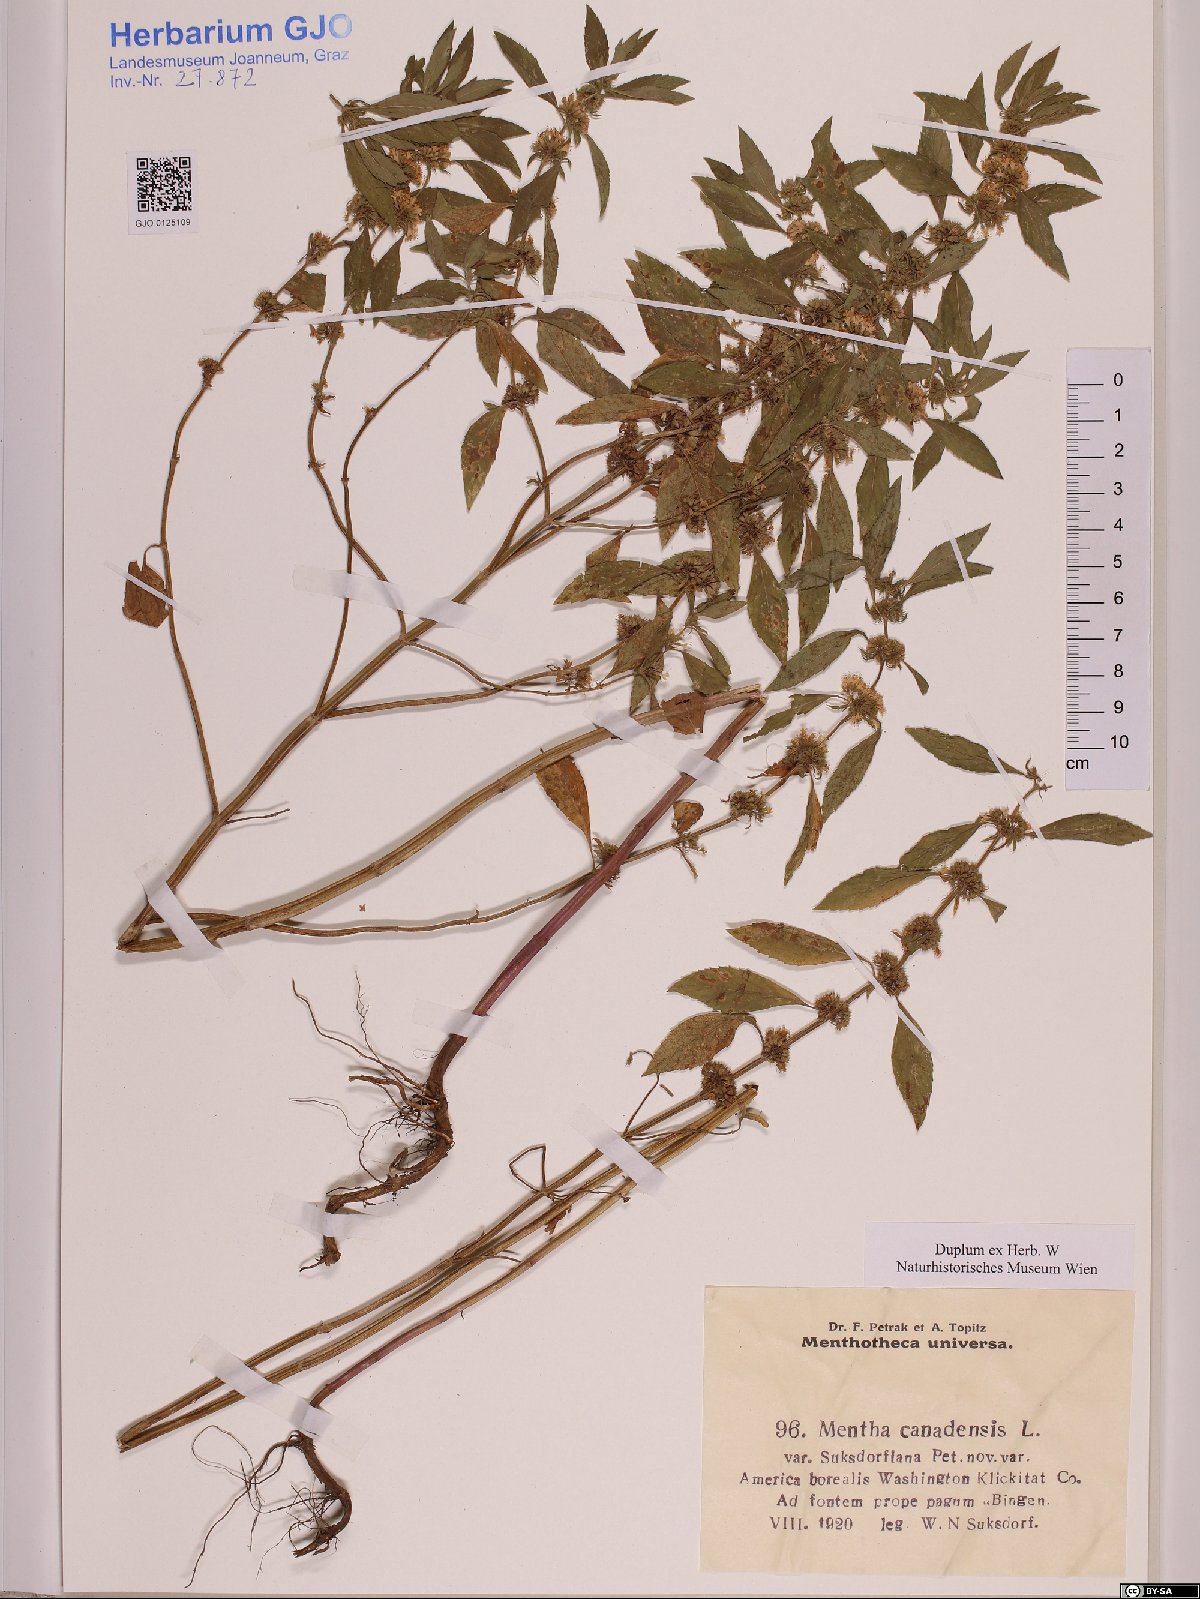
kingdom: Plantae
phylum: Tracheophyta
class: Magnoliopsida
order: Lamiales
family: Lamiaceae
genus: Mentha
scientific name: Mentha canadensis
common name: American corn mint
